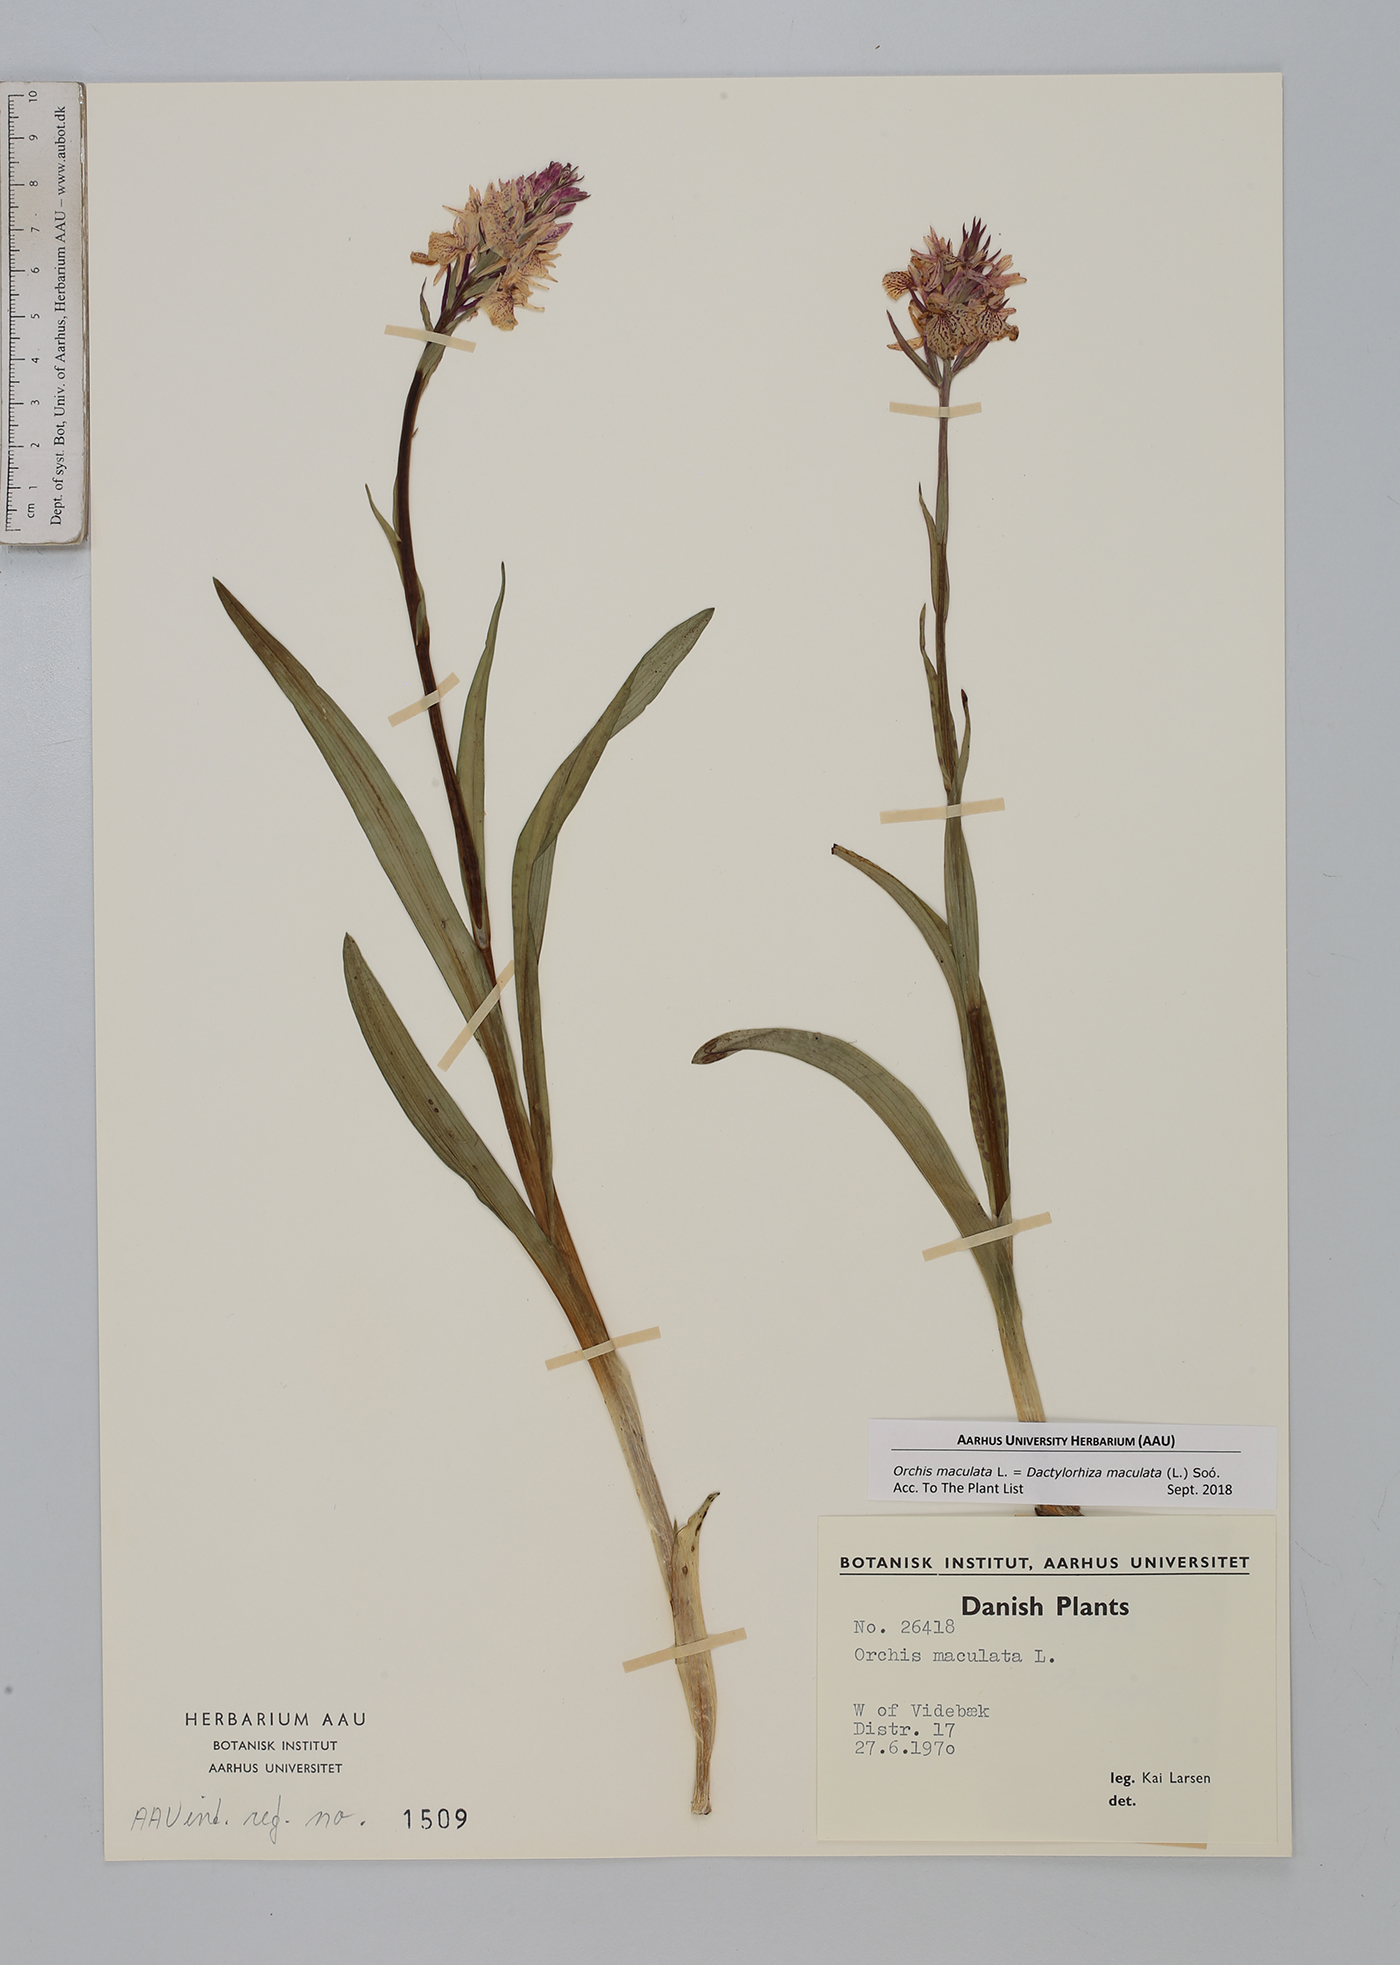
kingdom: Plantae
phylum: Tracheophyta
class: Liliopsida
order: Asparagales
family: Orchidaceae
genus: Dactylorhiza
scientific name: Dactylorhiza maculata
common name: Heath spotted-orchid
